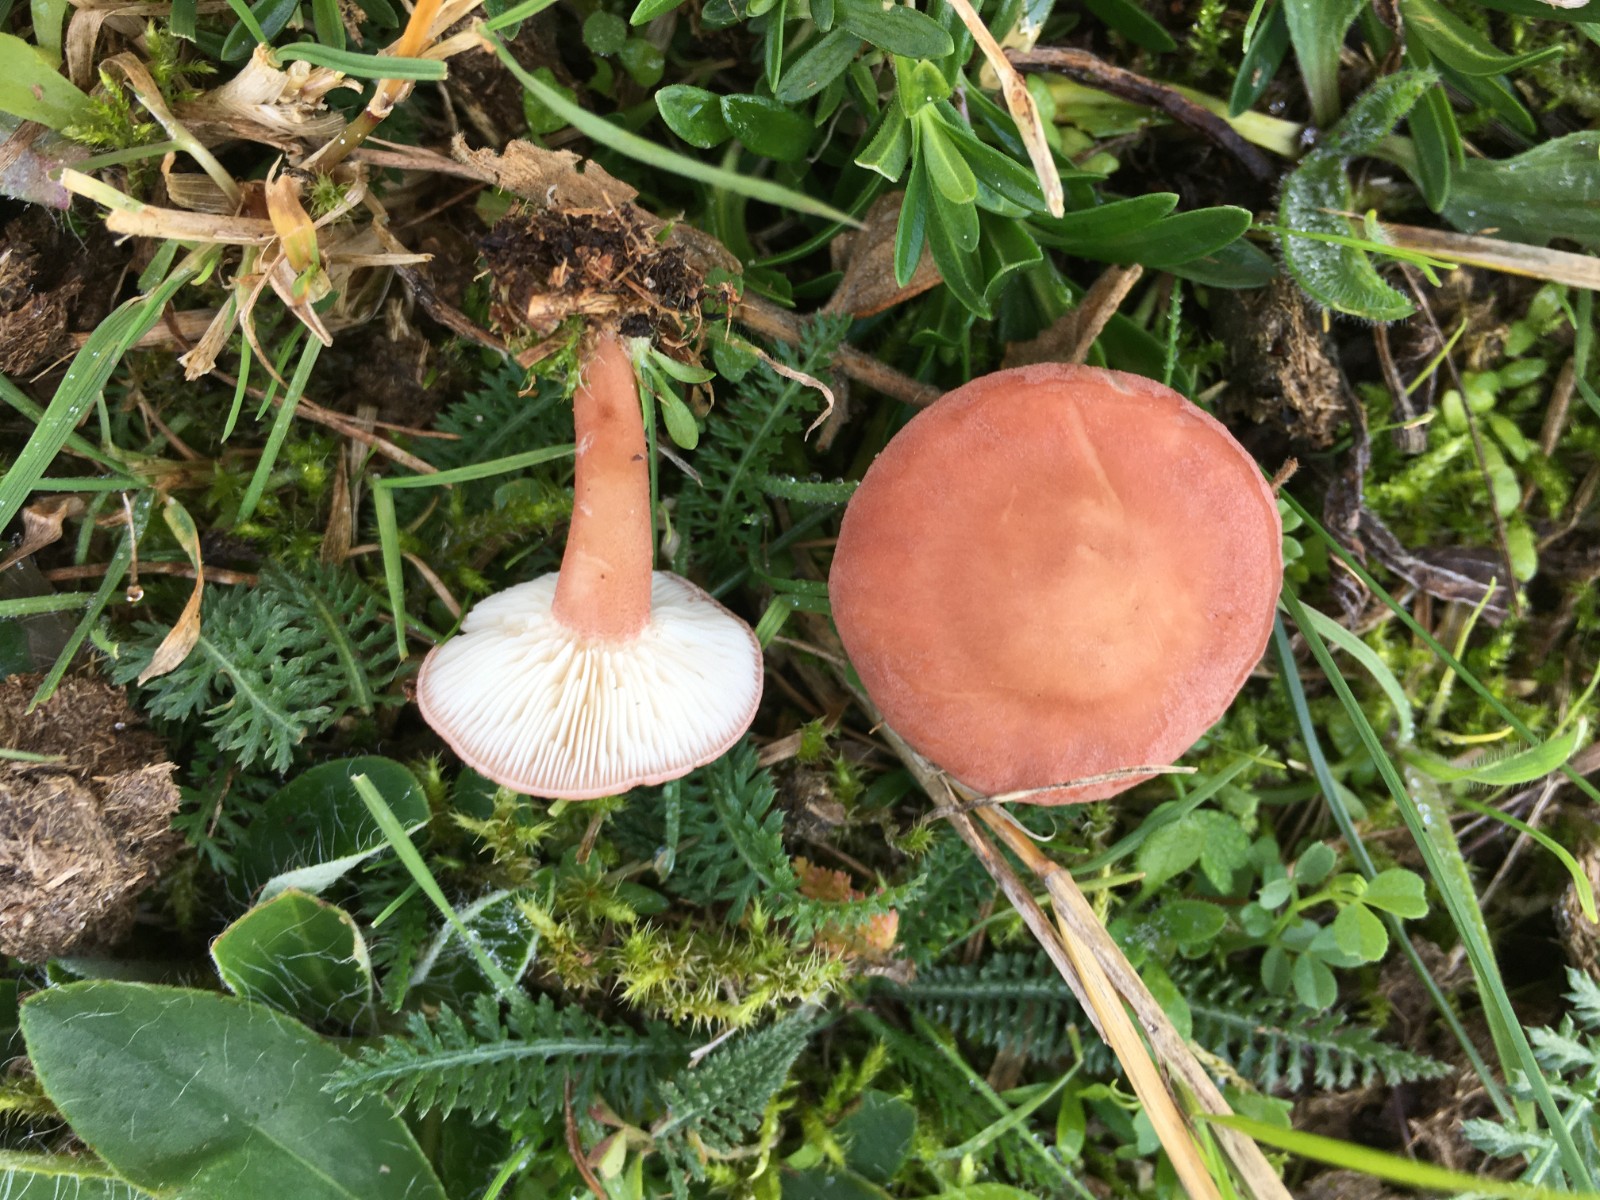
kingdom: Fungi
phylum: Basidiomycota
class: Agaricomycetes
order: Agaricales
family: Lyophyllaceae
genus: Calocybe
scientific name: Calocybe carnea
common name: rosa fagerhat
